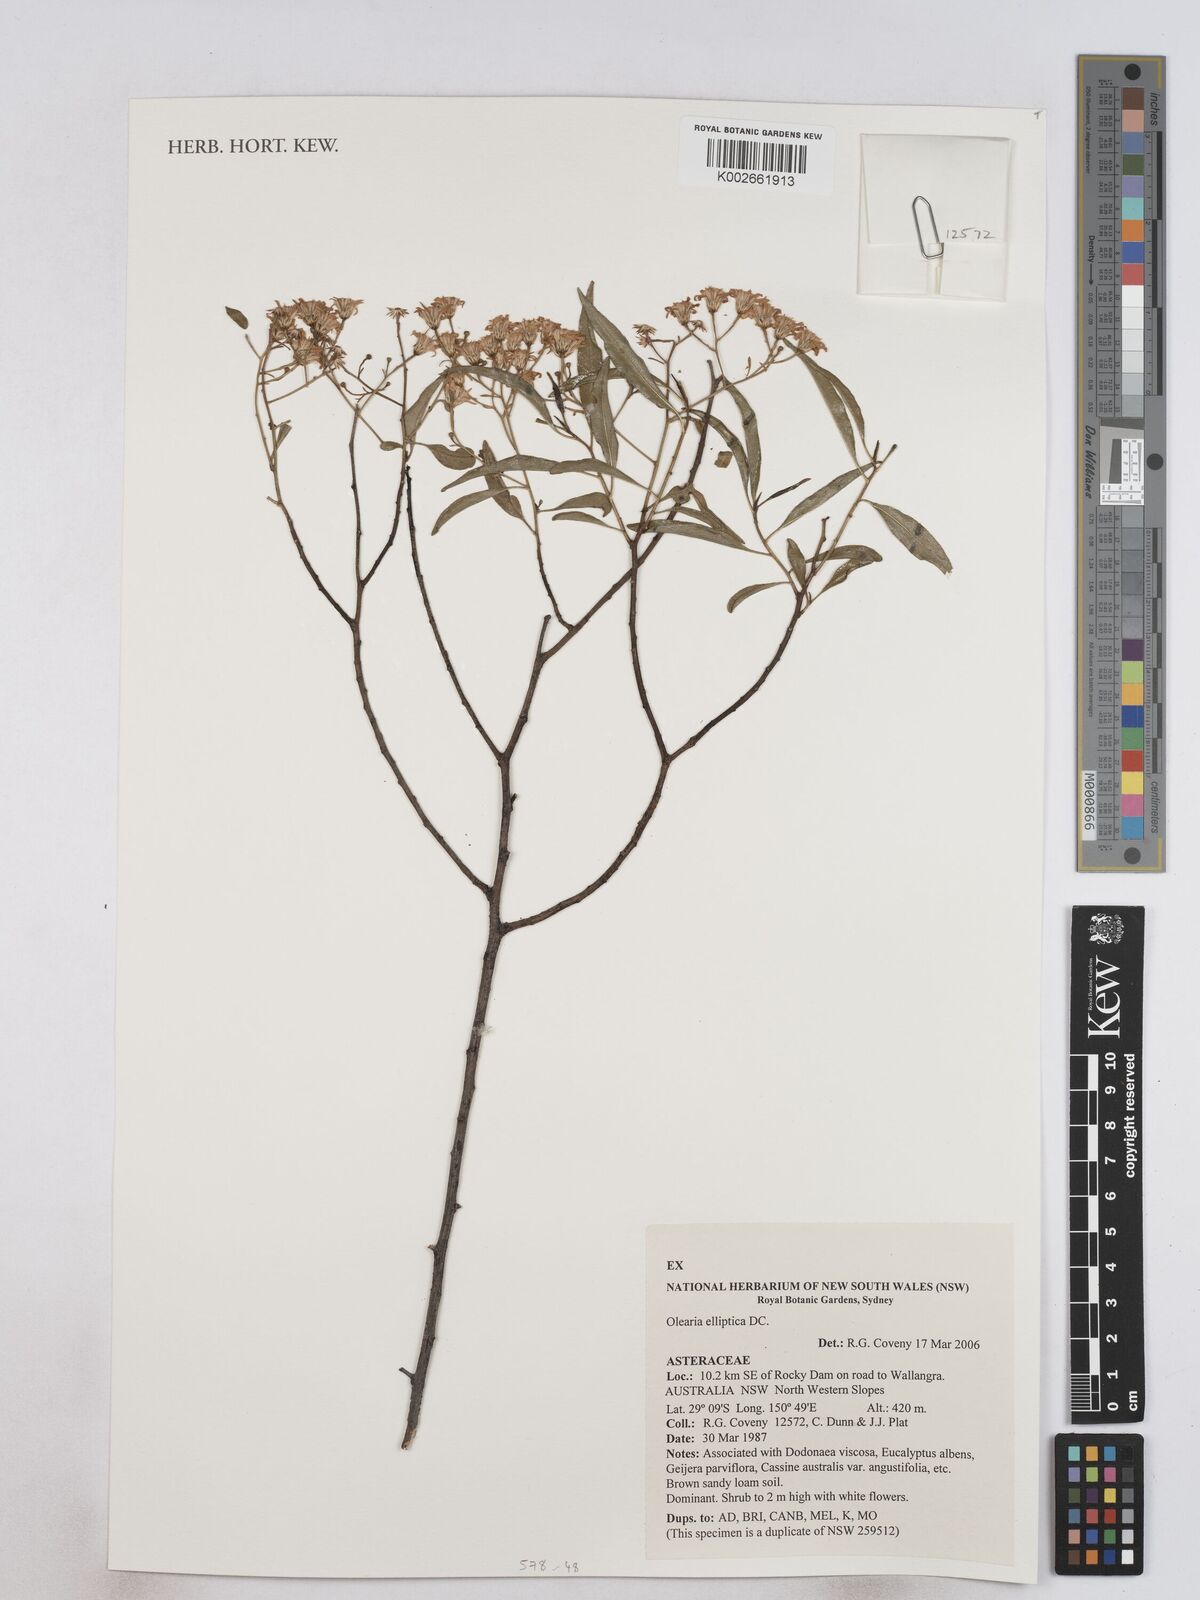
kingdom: Plantae
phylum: Tracheophyta
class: Magnoliopsida
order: Asterales
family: Asteraceae
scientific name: Asteraceae
